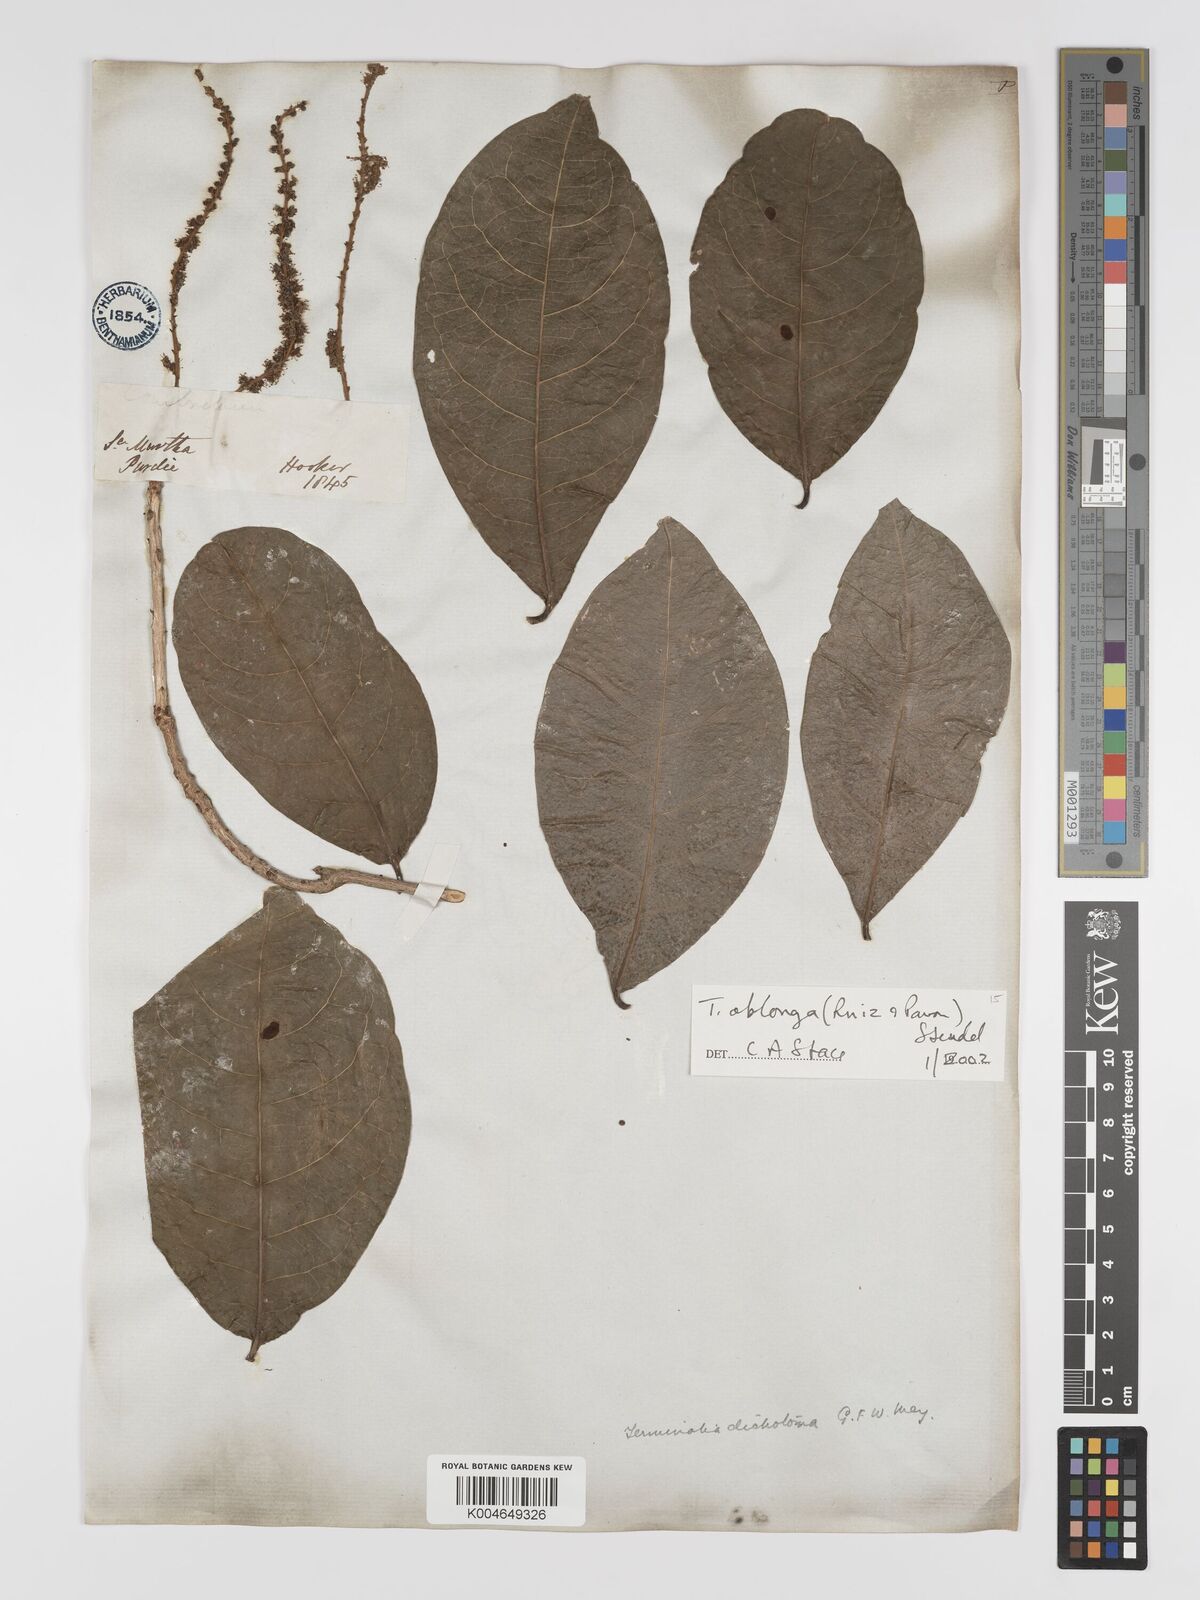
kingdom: Plantae
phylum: Tracheophyta
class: Magnoliopsida
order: Myrtales
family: Combretaceae
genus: Terminalia
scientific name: Terminalia oblonga
